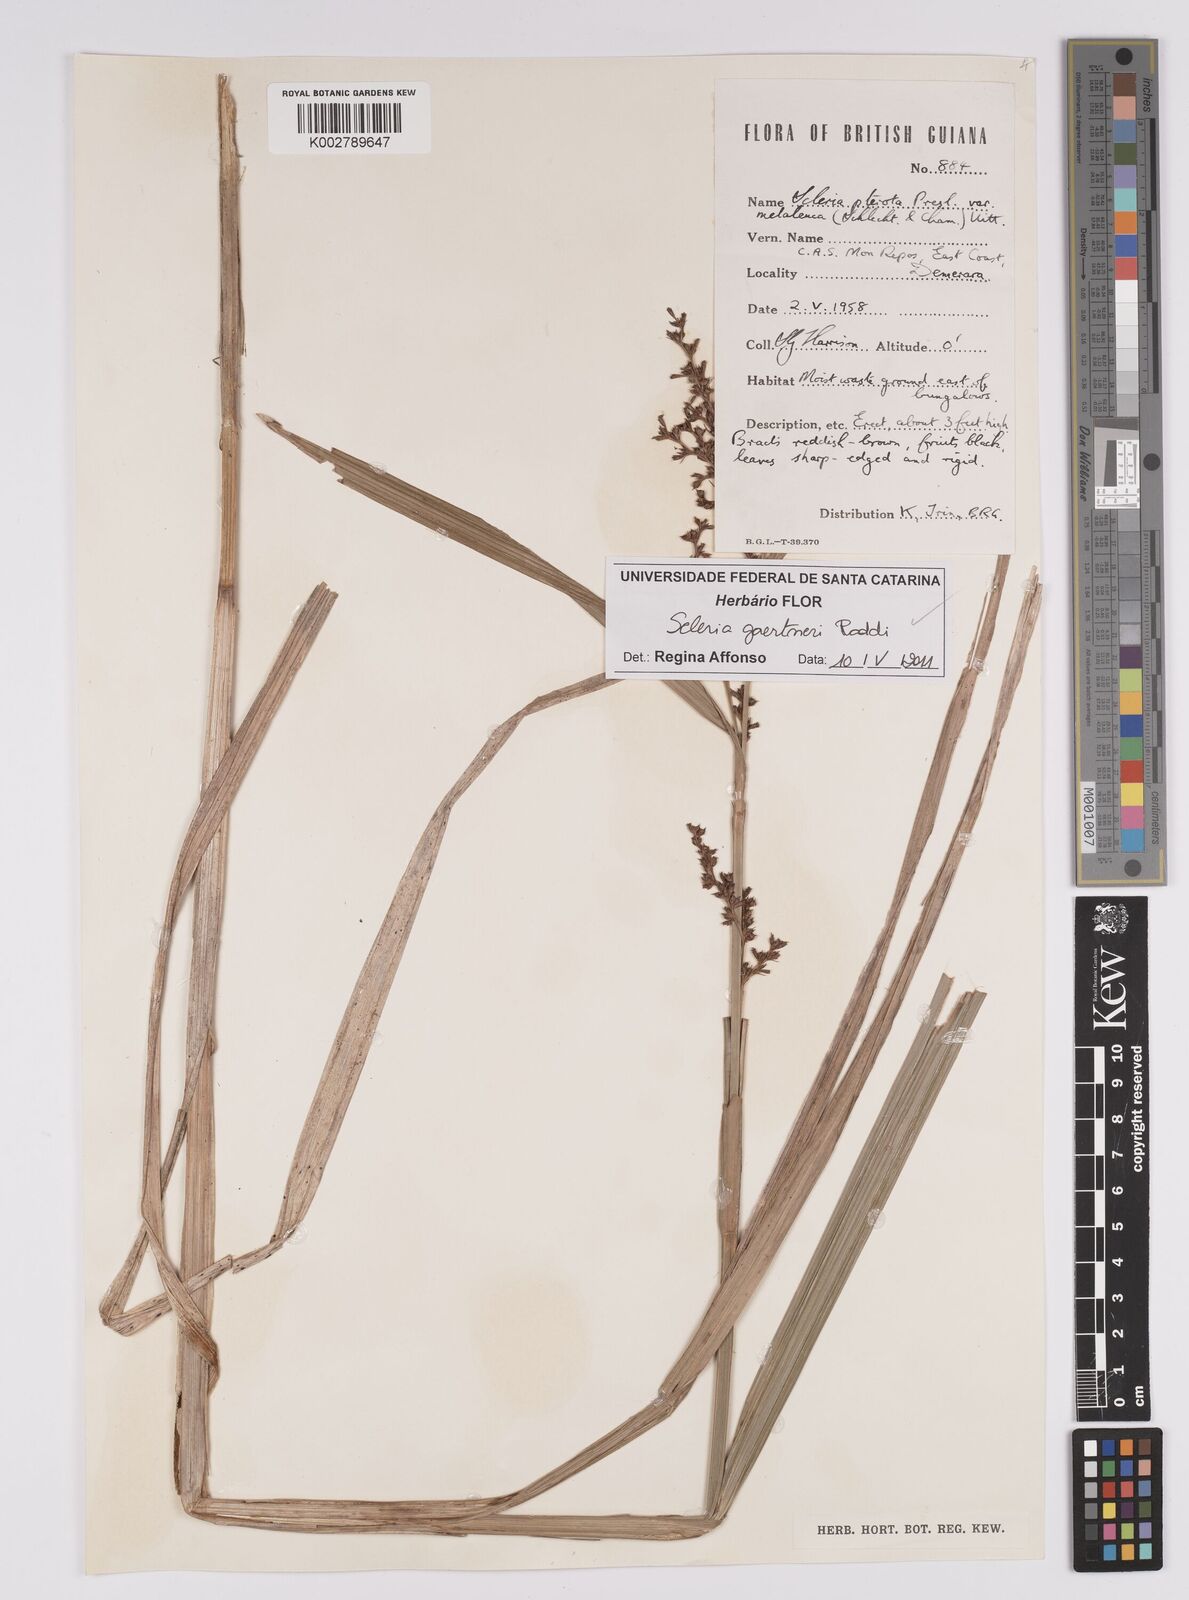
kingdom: Plantae
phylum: Tracheophyta
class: Liliopsida
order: Poales
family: Cyperaceae
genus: Scleria
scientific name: Scleria gaertneri
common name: Cortadera blanca
